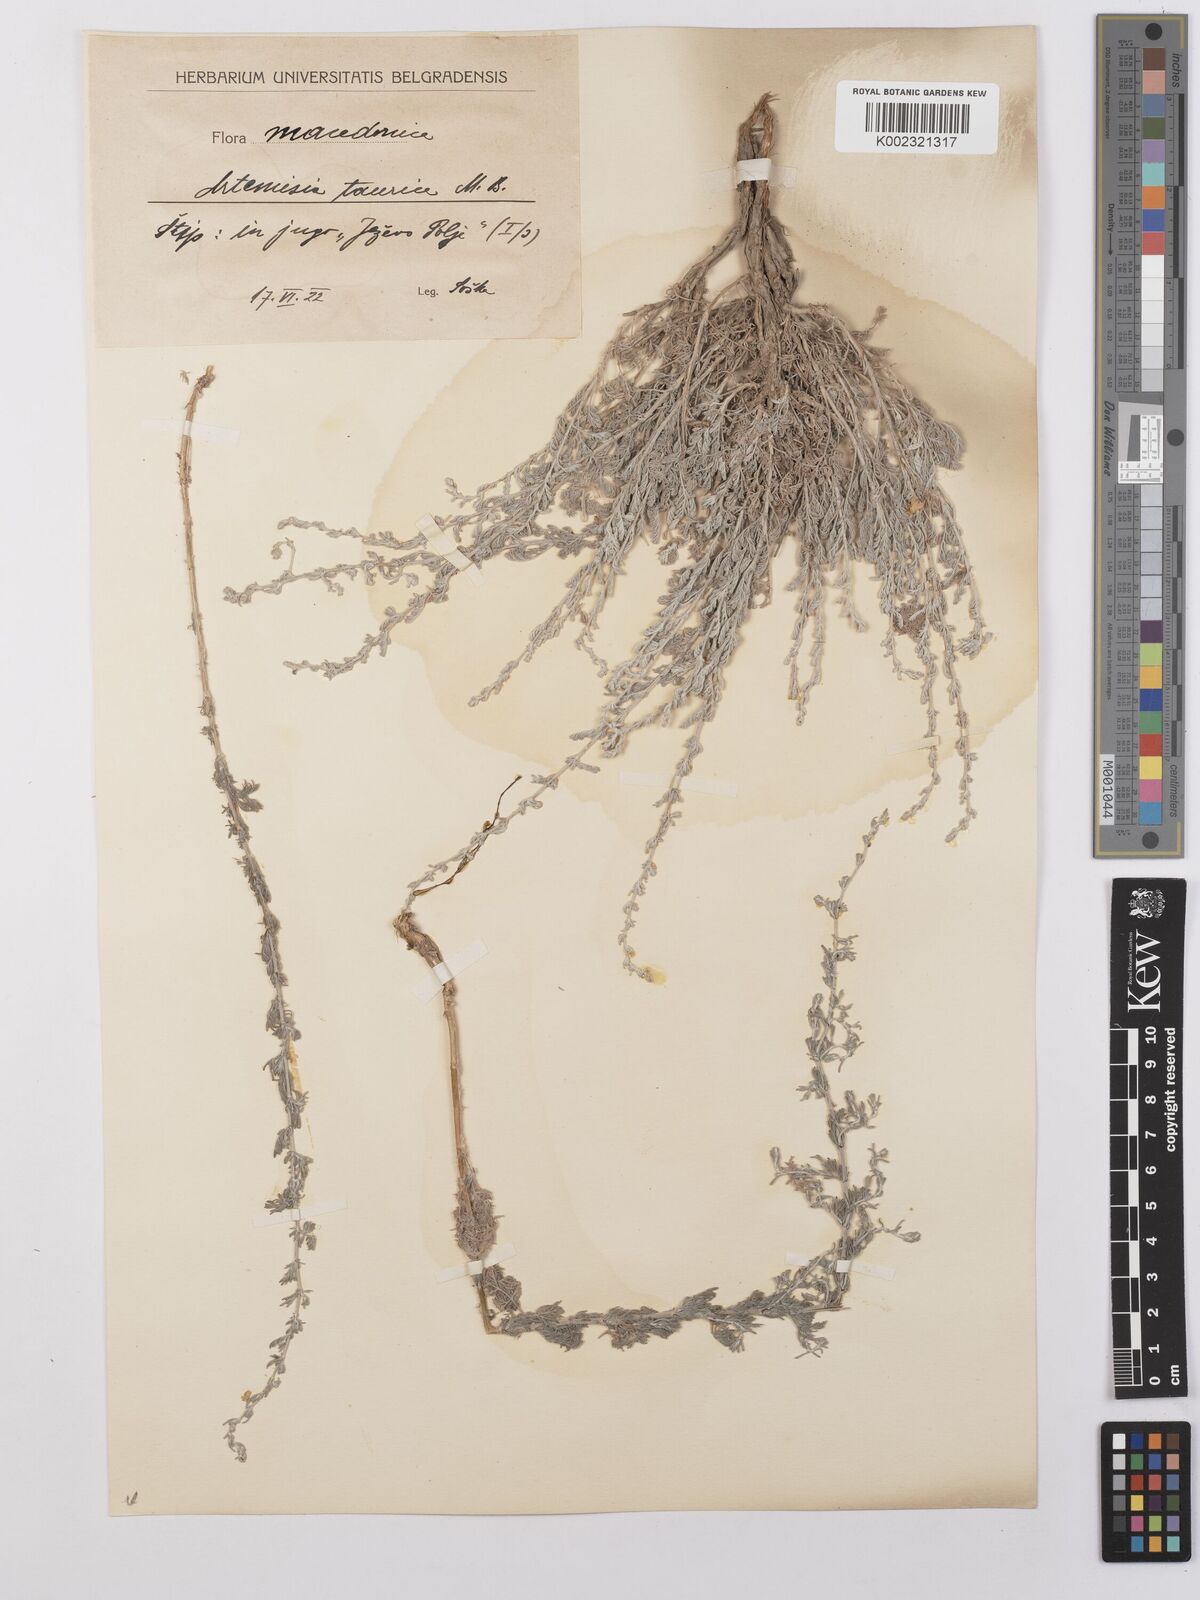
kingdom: Plantae
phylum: Tracheophyta
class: Magnoliopsida
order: Asterales
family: Asteraceae
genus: Artemisia
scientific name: Artemisia taurica
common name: Tauric wormwood
